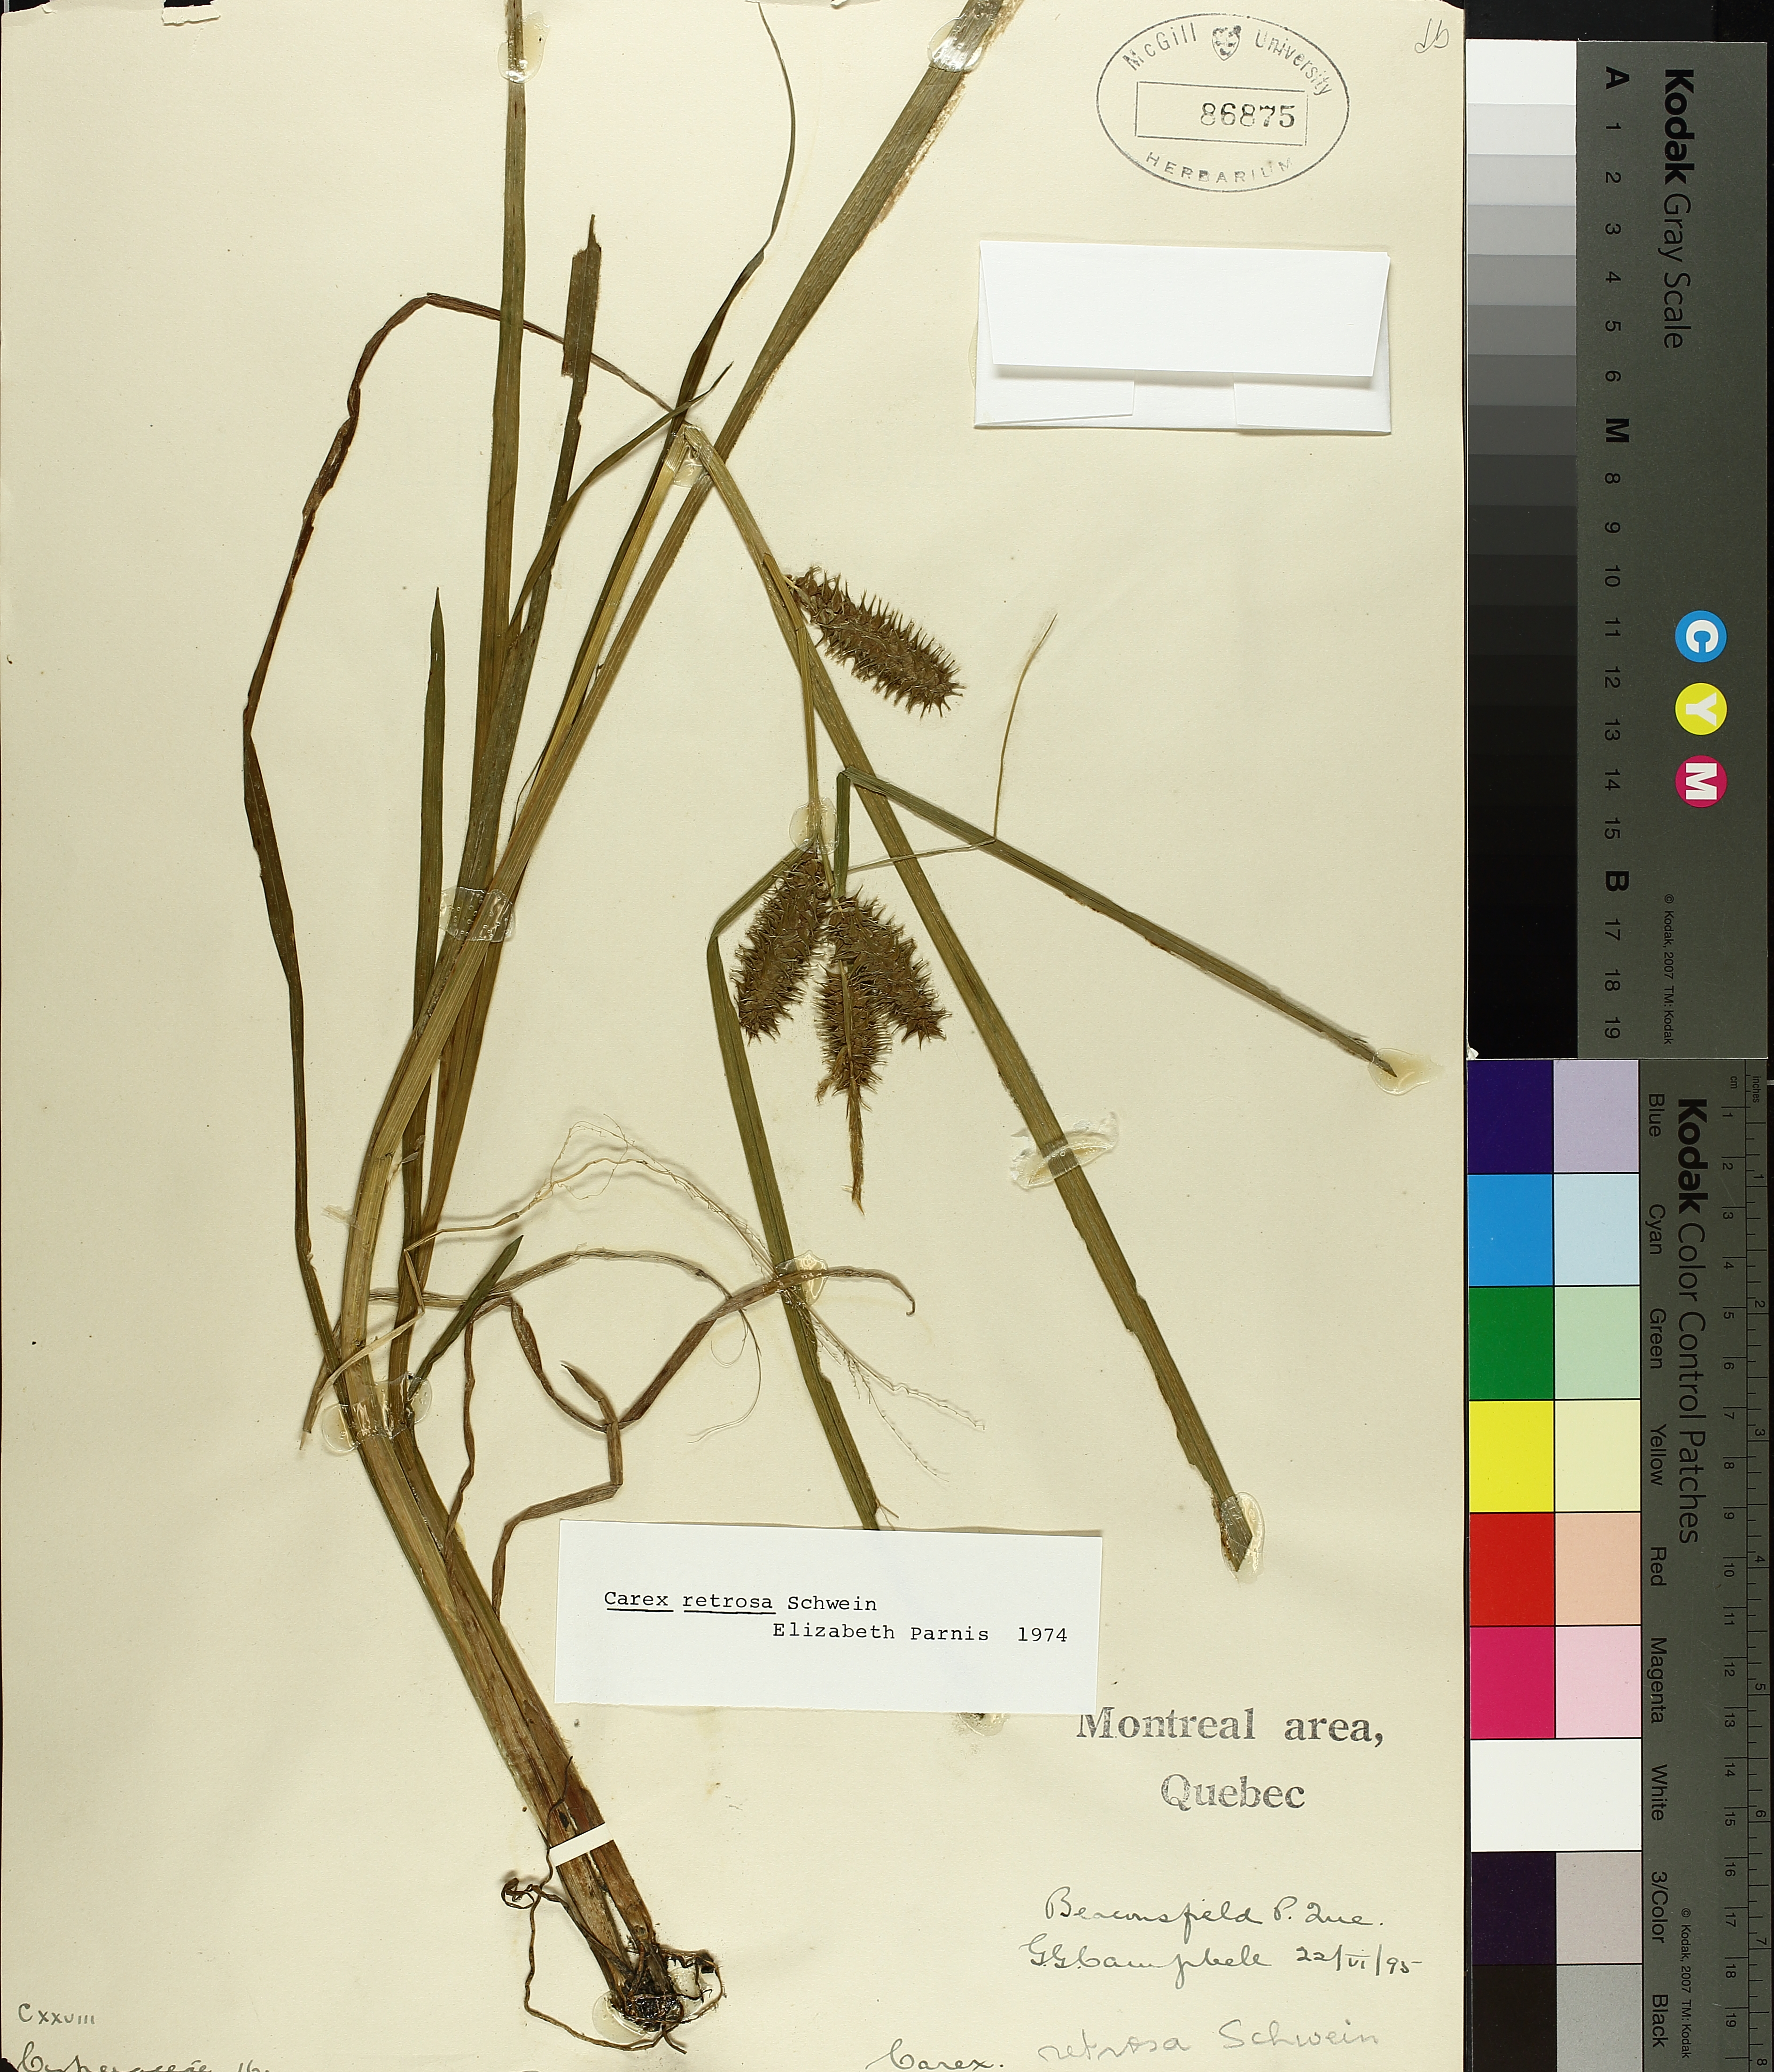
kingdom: Plantae
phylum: Tracheophyta
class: Liliopsida
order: Poales
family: Cyperaceae
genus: Carex
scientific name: Carex retrorsa
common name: Knot-sheath sedge
